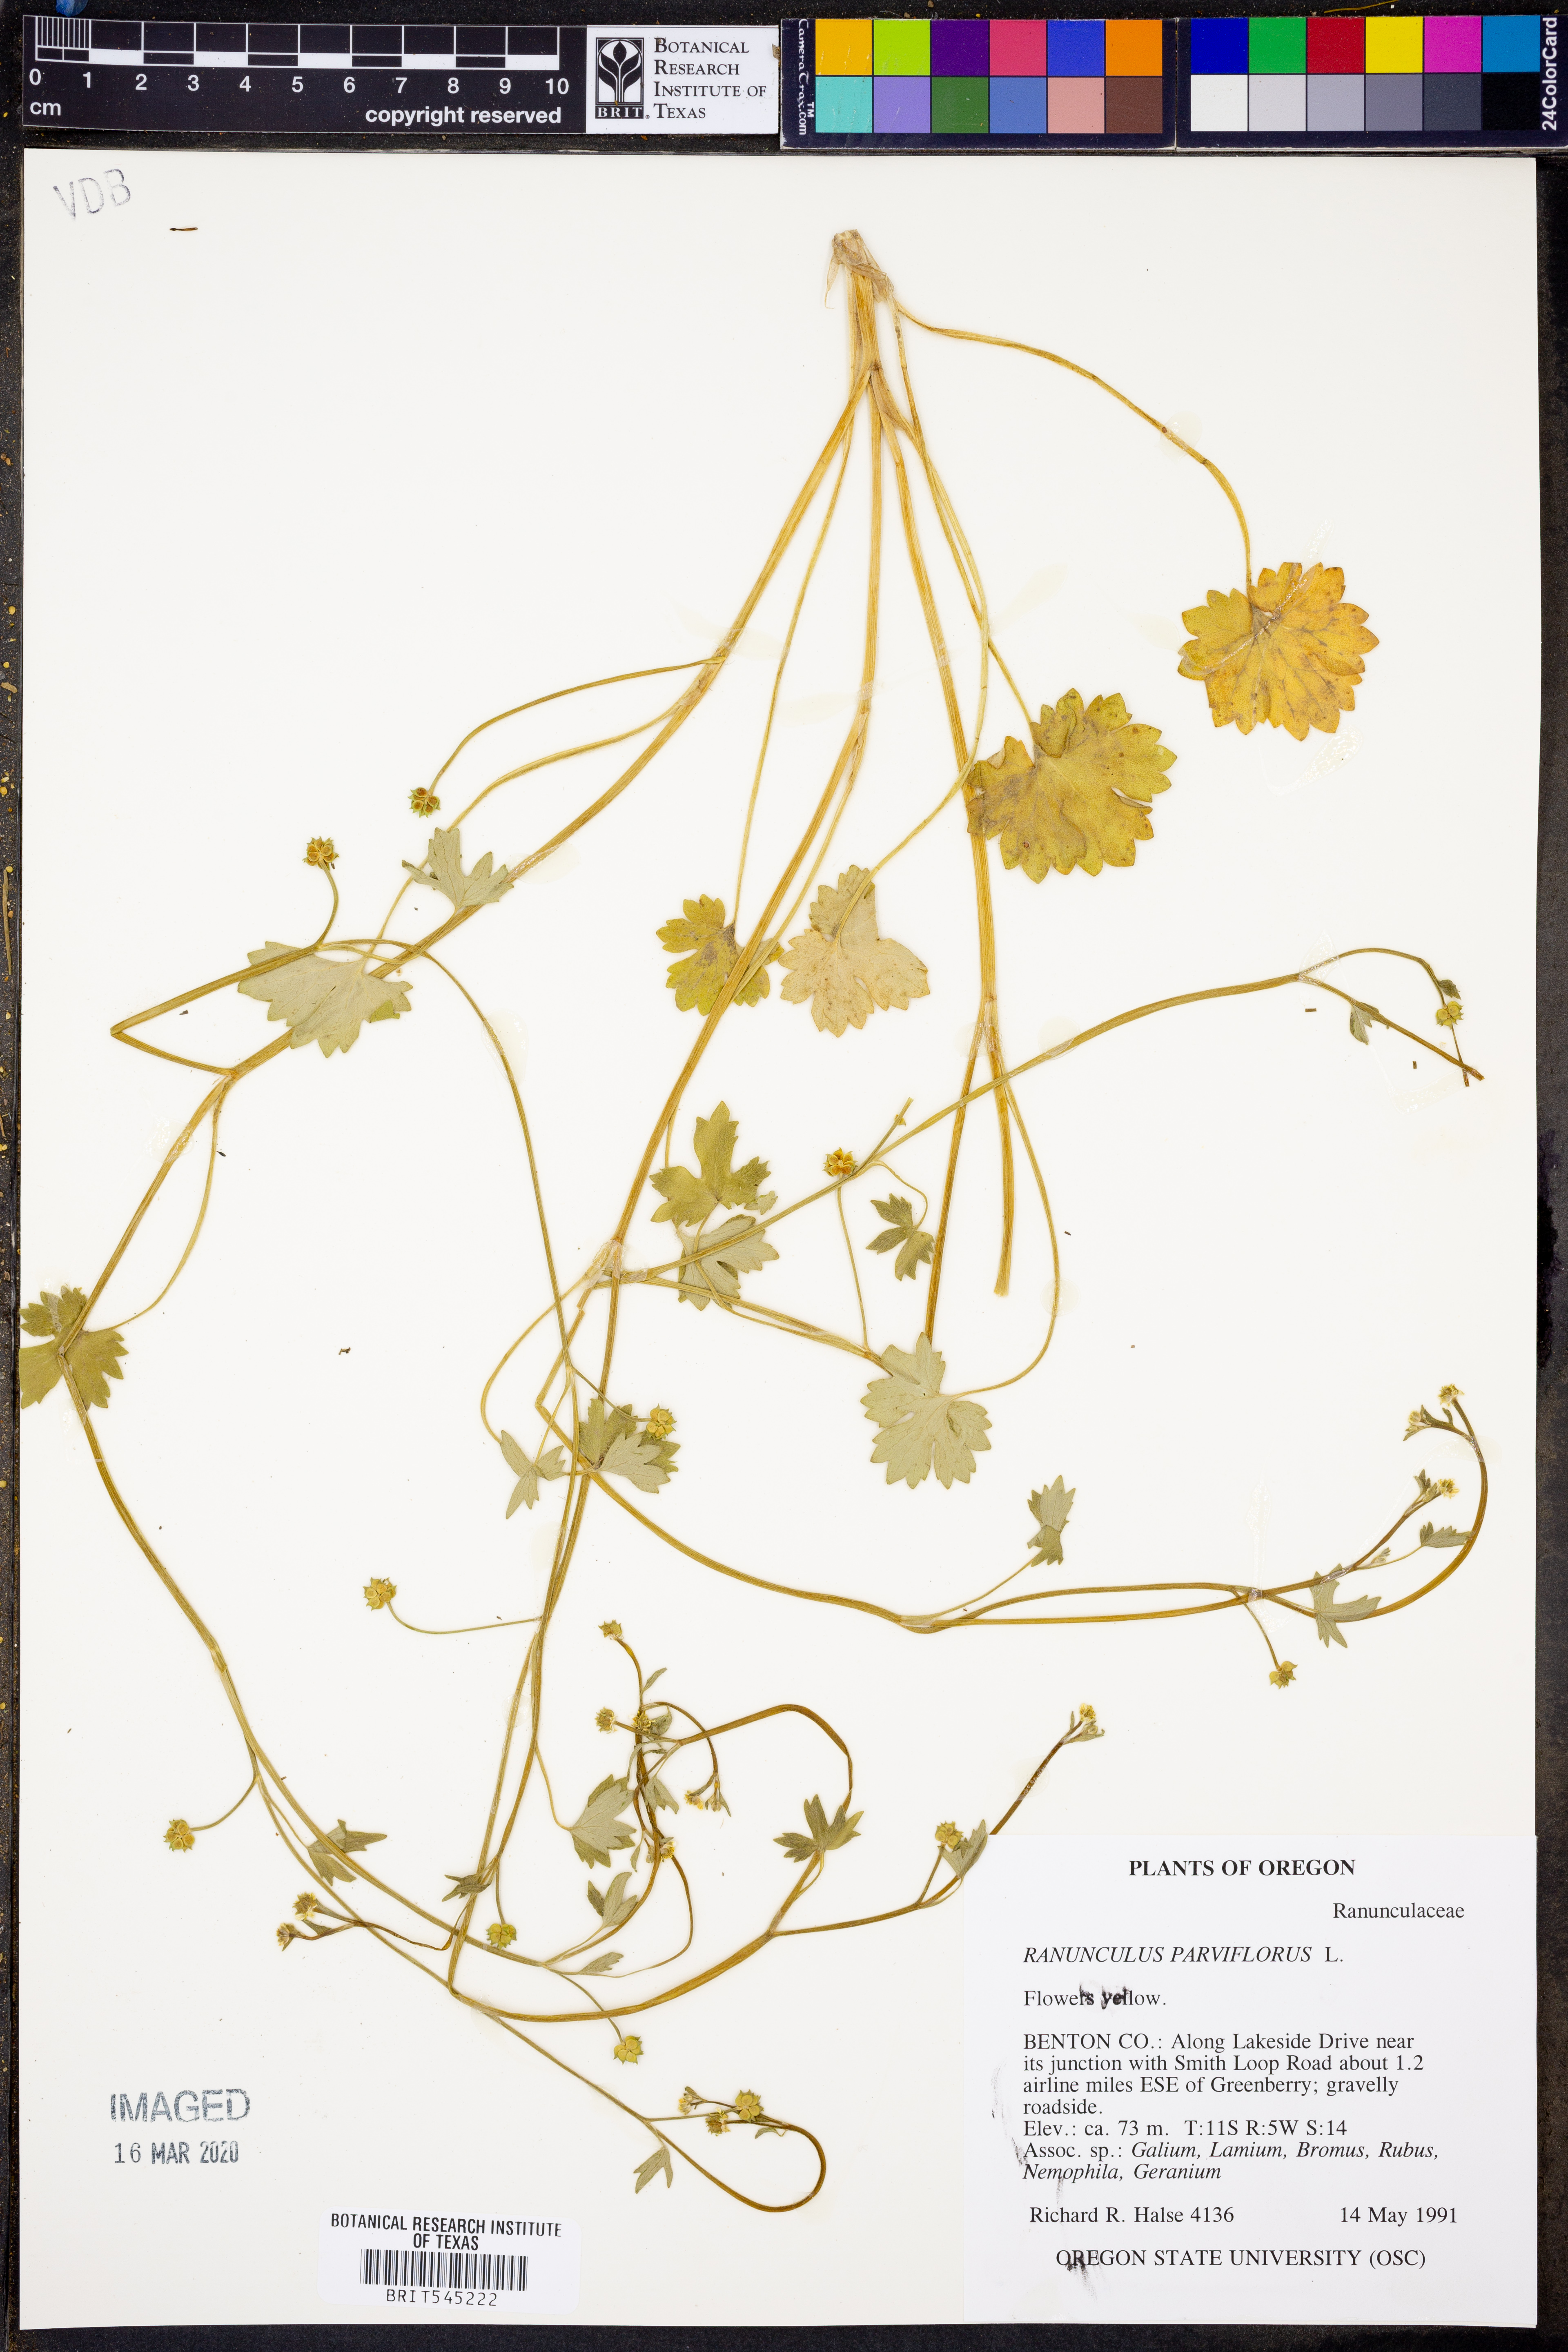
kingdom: Plantae
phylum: Tracheophyta
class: Magnoliopsida
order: Ranunculales
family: Ranunculaceae
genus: Ranunculus
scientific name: Ranunculus parviflorus
